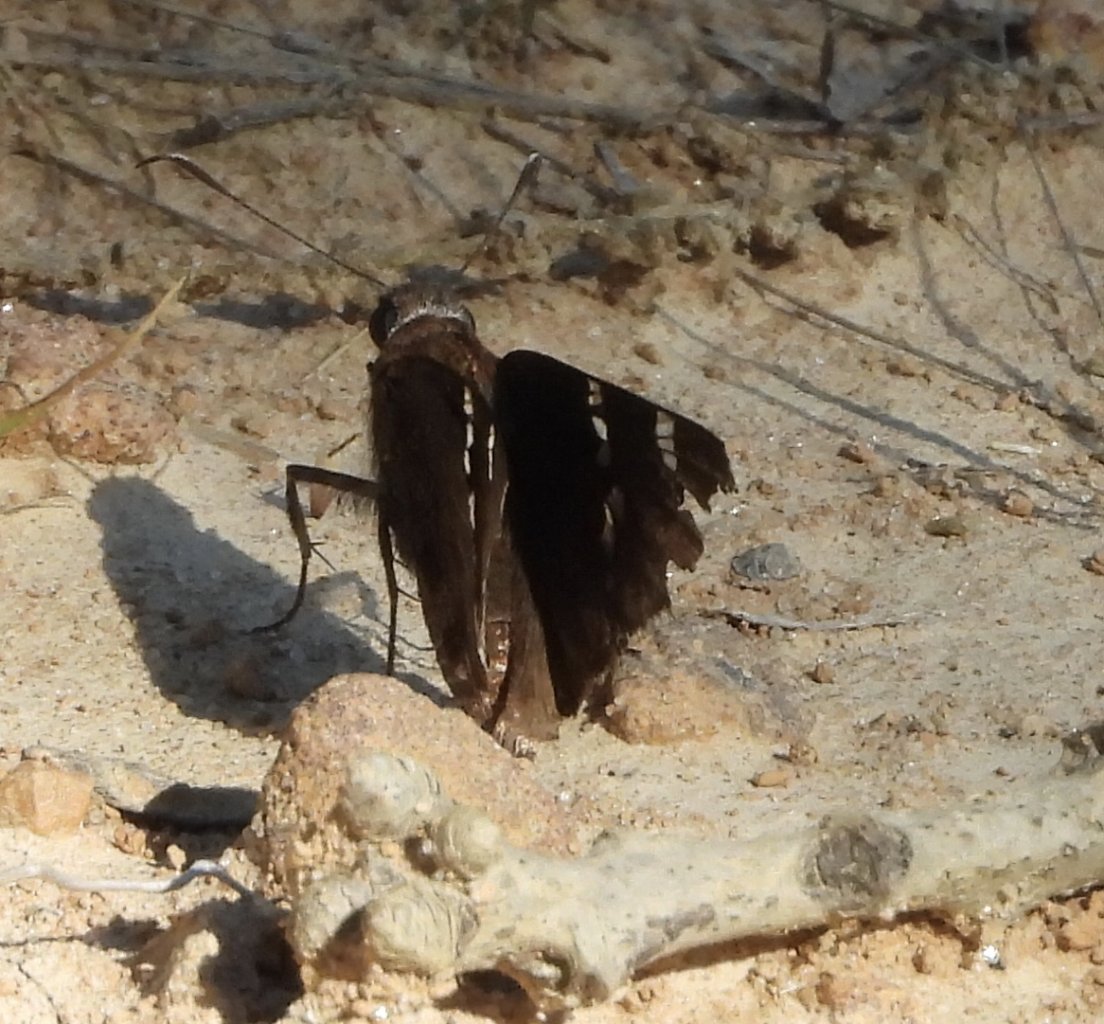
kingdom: Animalia
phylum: Arthropoda
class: Insecta
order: Lepidoptera
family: Hesperiidae
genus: Autochton
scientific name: Autochton
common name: Southern Cloudywing
